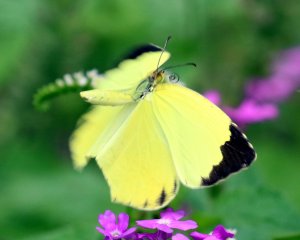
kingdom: Animalia
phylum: Arthropoda
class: Insecta
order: Lepidoptera
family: Pieridae
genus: Eurema
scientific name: Eurema boisduvaliana
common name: Boisduval's Yellow
